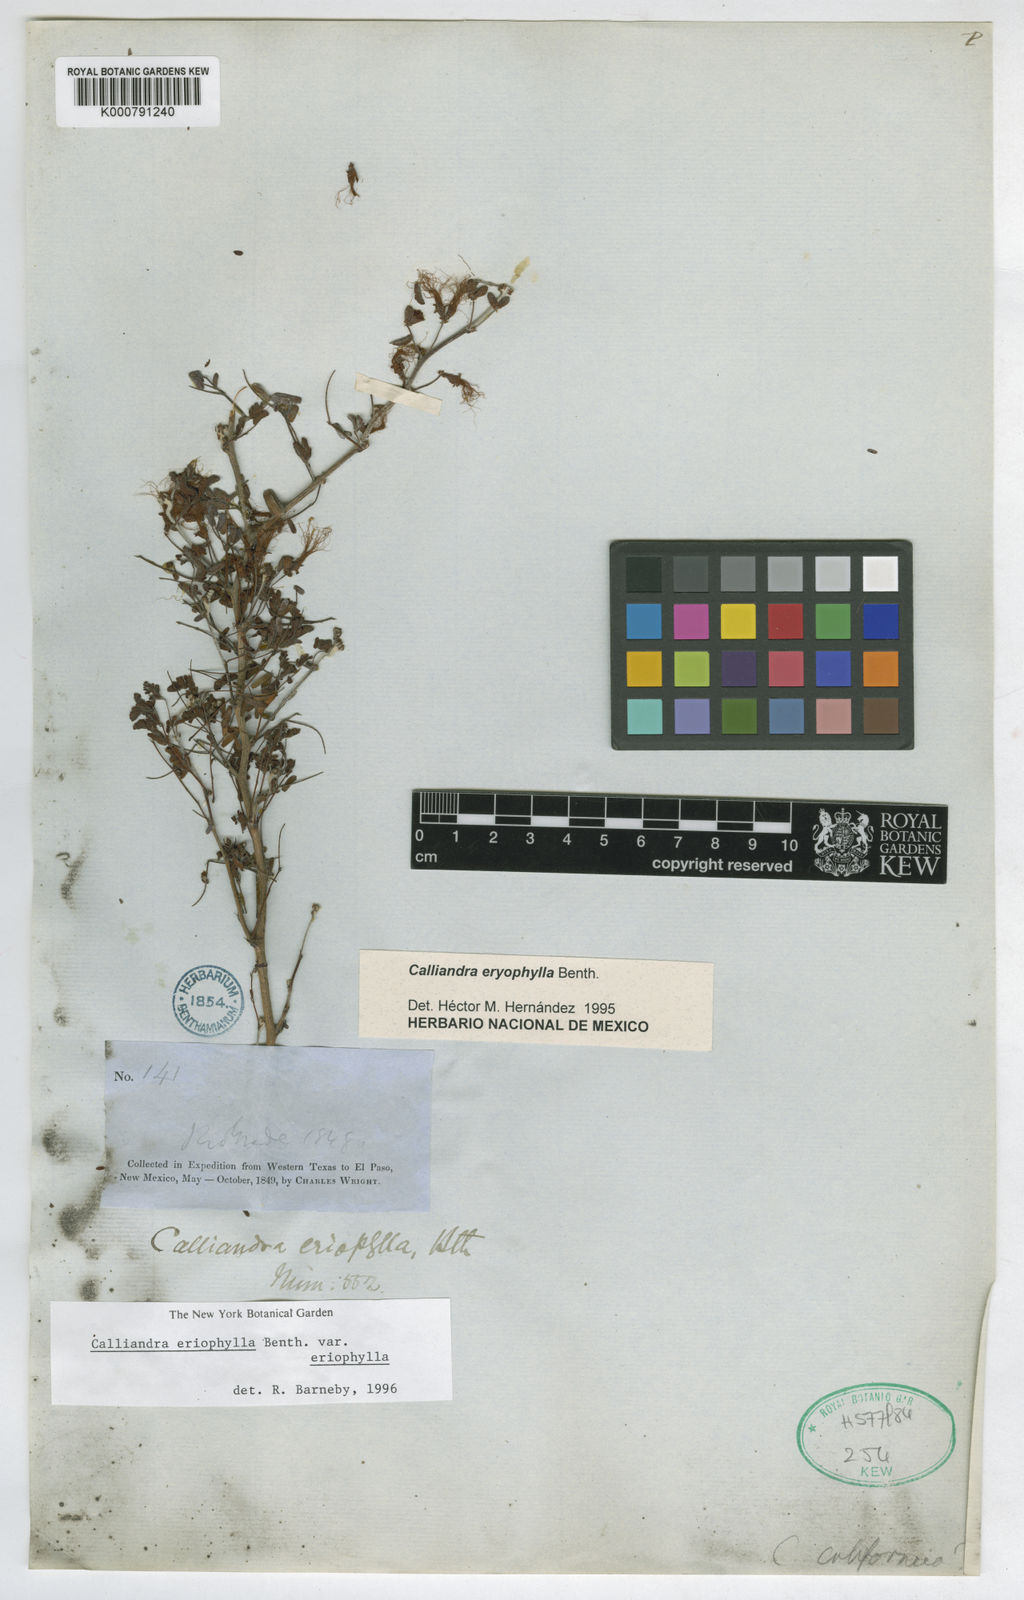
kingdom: Plantae
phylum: Tracheophyta
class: Magnoliopsida
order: Fabales
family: Fabaceae
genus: Calliandra
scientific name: Calliandra eriophylla
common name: Fairy-duster
